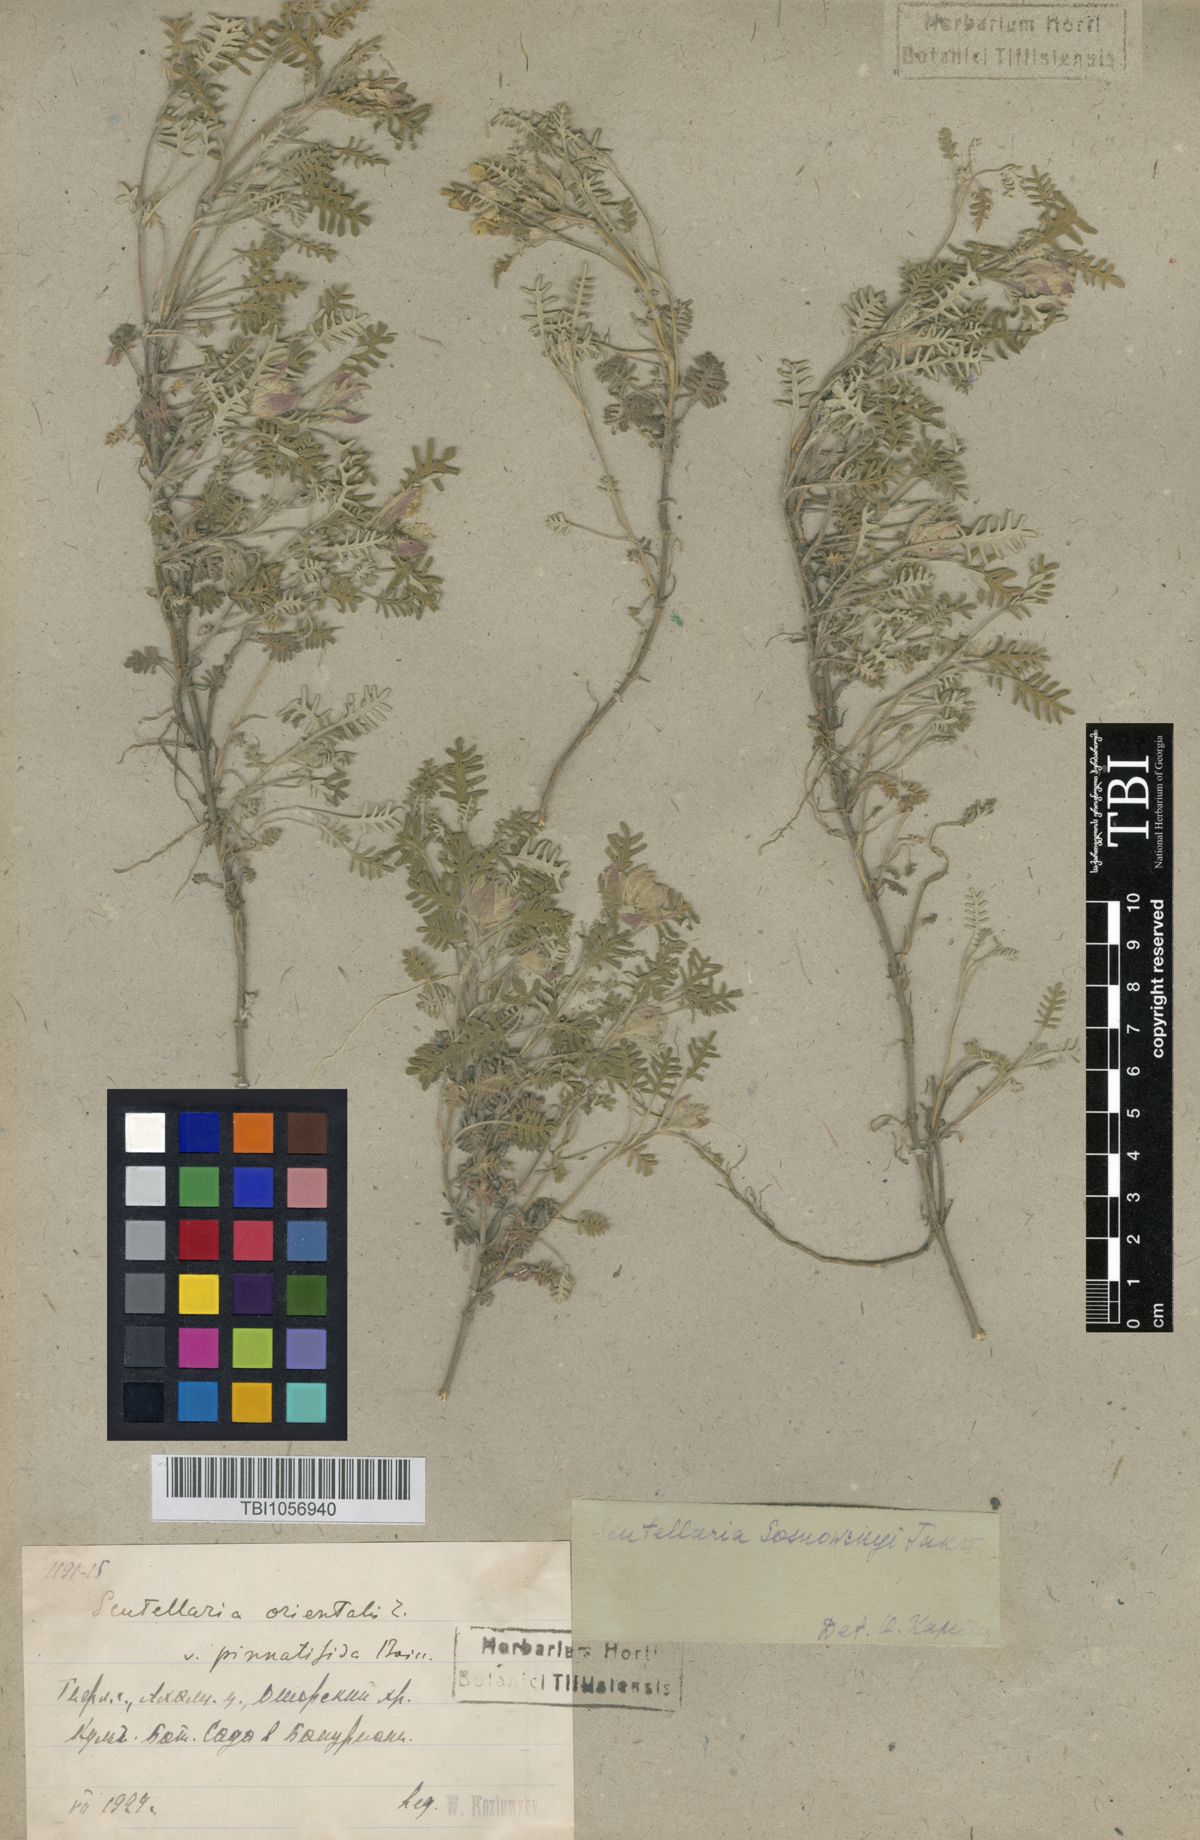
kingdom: Plantae
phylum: Tracheophyta
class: Magnoliopsida
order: Lamiales
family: Lamiaceae
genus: Scutellaria
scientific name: Scutellaria sosnowskyi
